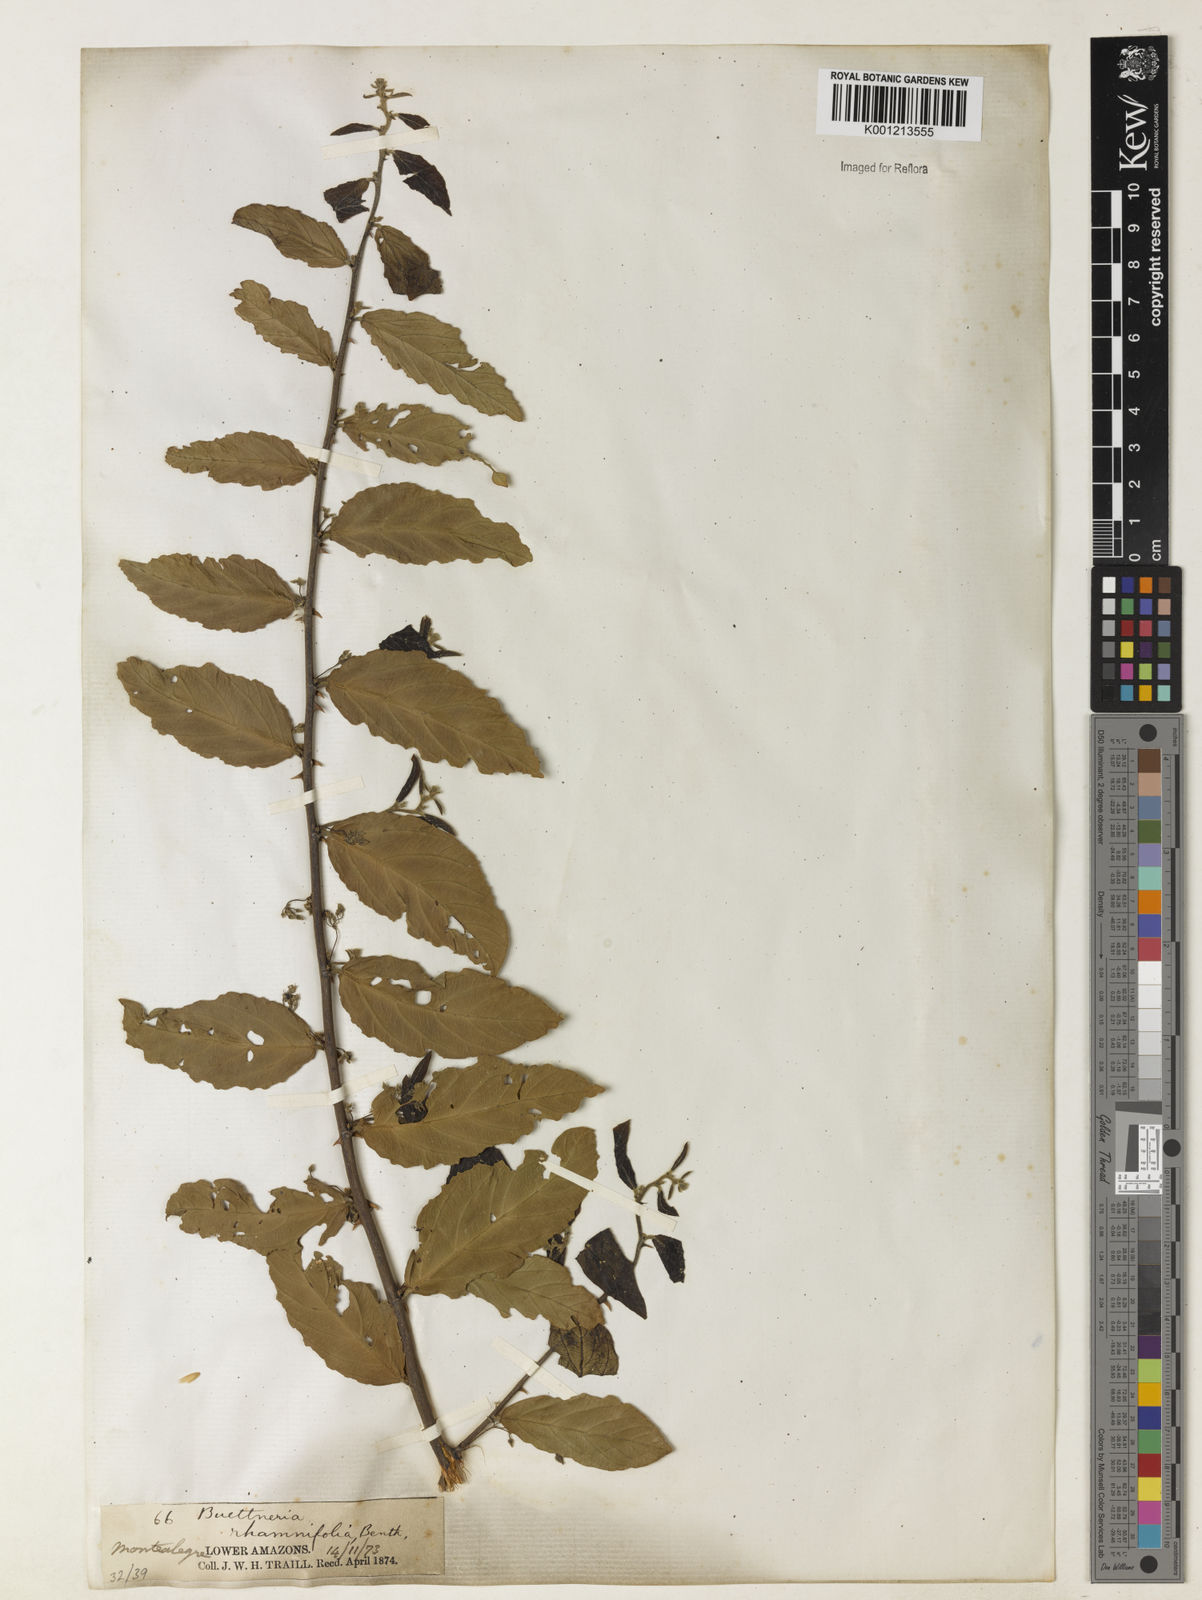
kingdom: Plantae
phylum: Tracheophyta
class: Magnoliopsida
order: Malvales
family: Malvaceae
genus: Byttneria
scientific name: Byttneria rhamnifolia
